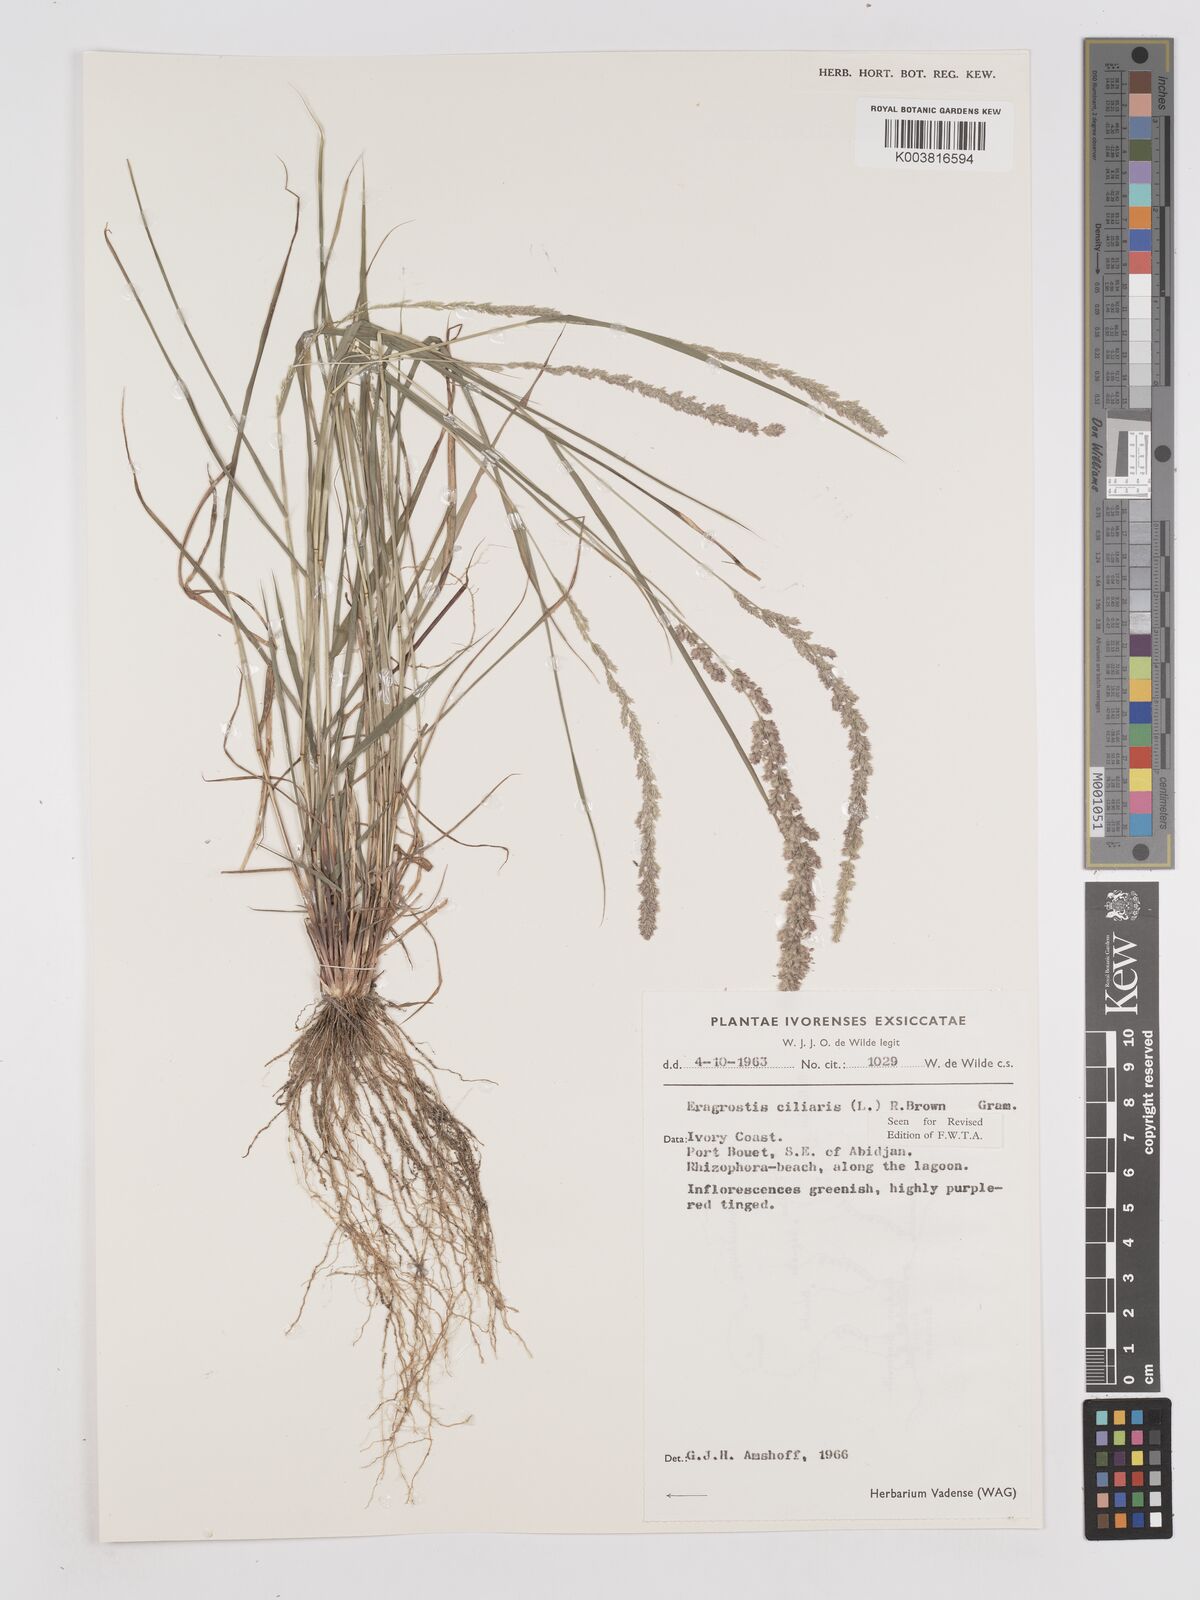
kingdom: Plantae
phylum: Tracheophyta
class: Liliopsida
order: Poales
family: Poaceae
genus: Eragrostis
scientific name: Eragrostis ciliaris
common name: Gophertail lovegrass
